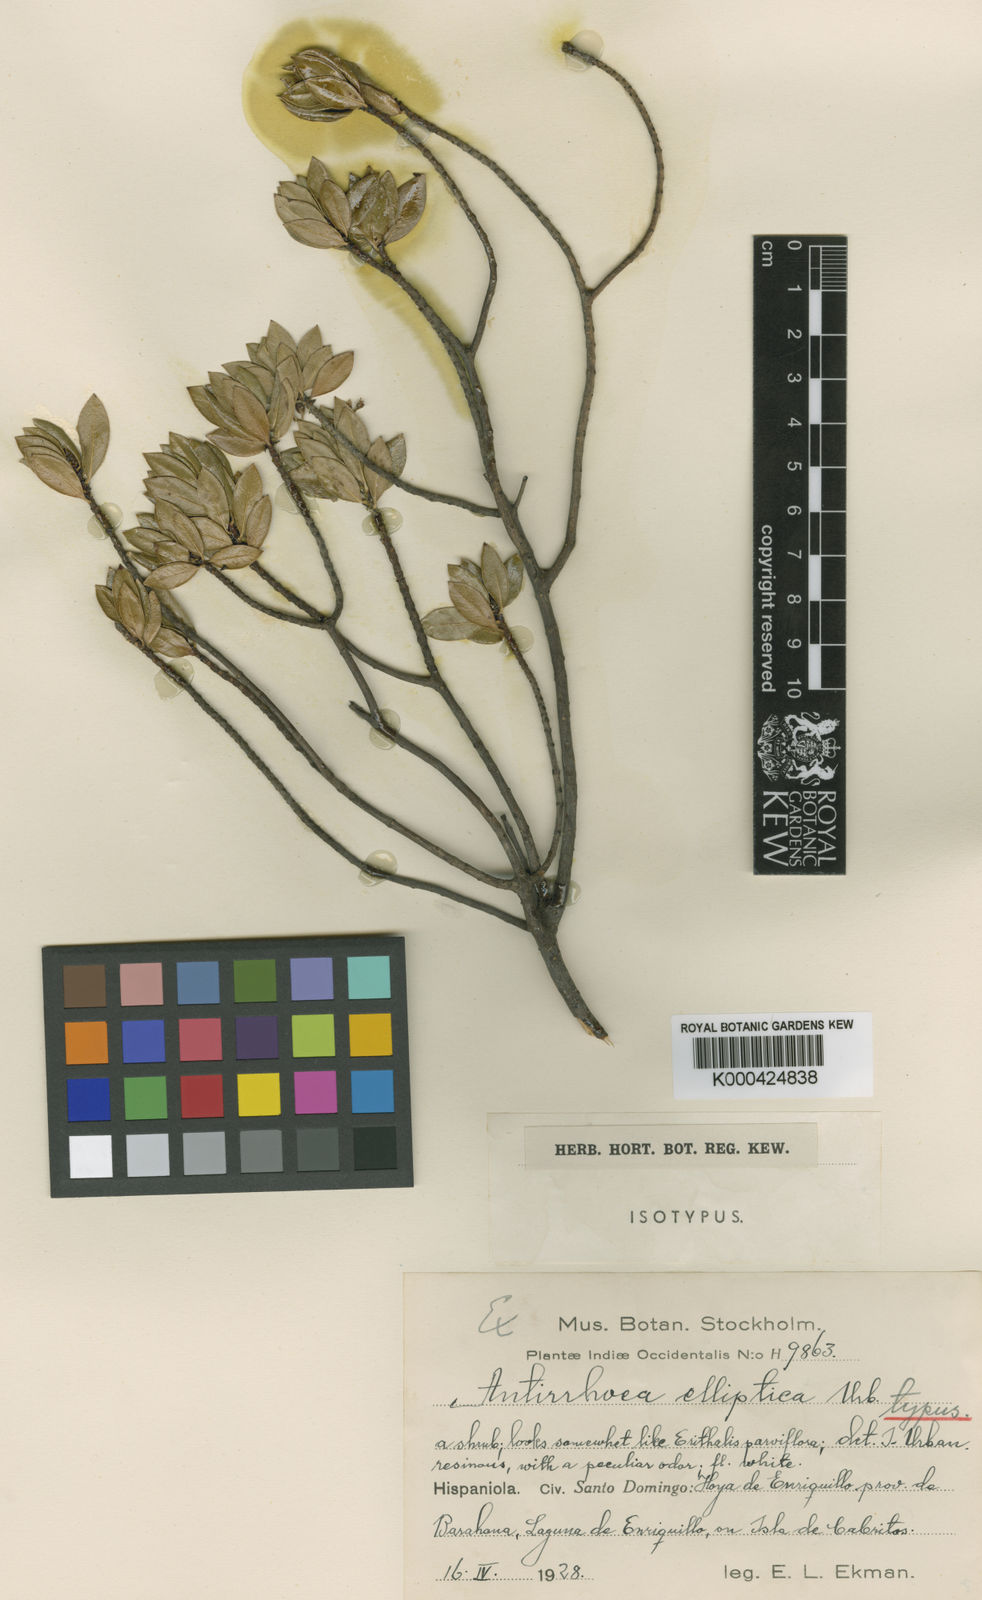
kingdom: Plantae
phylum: Tracheophyta
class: Magnoliopsida
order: Gentianales
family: Rubiaceae
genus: Stenostomum
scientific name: Stenostomum ellipticum
